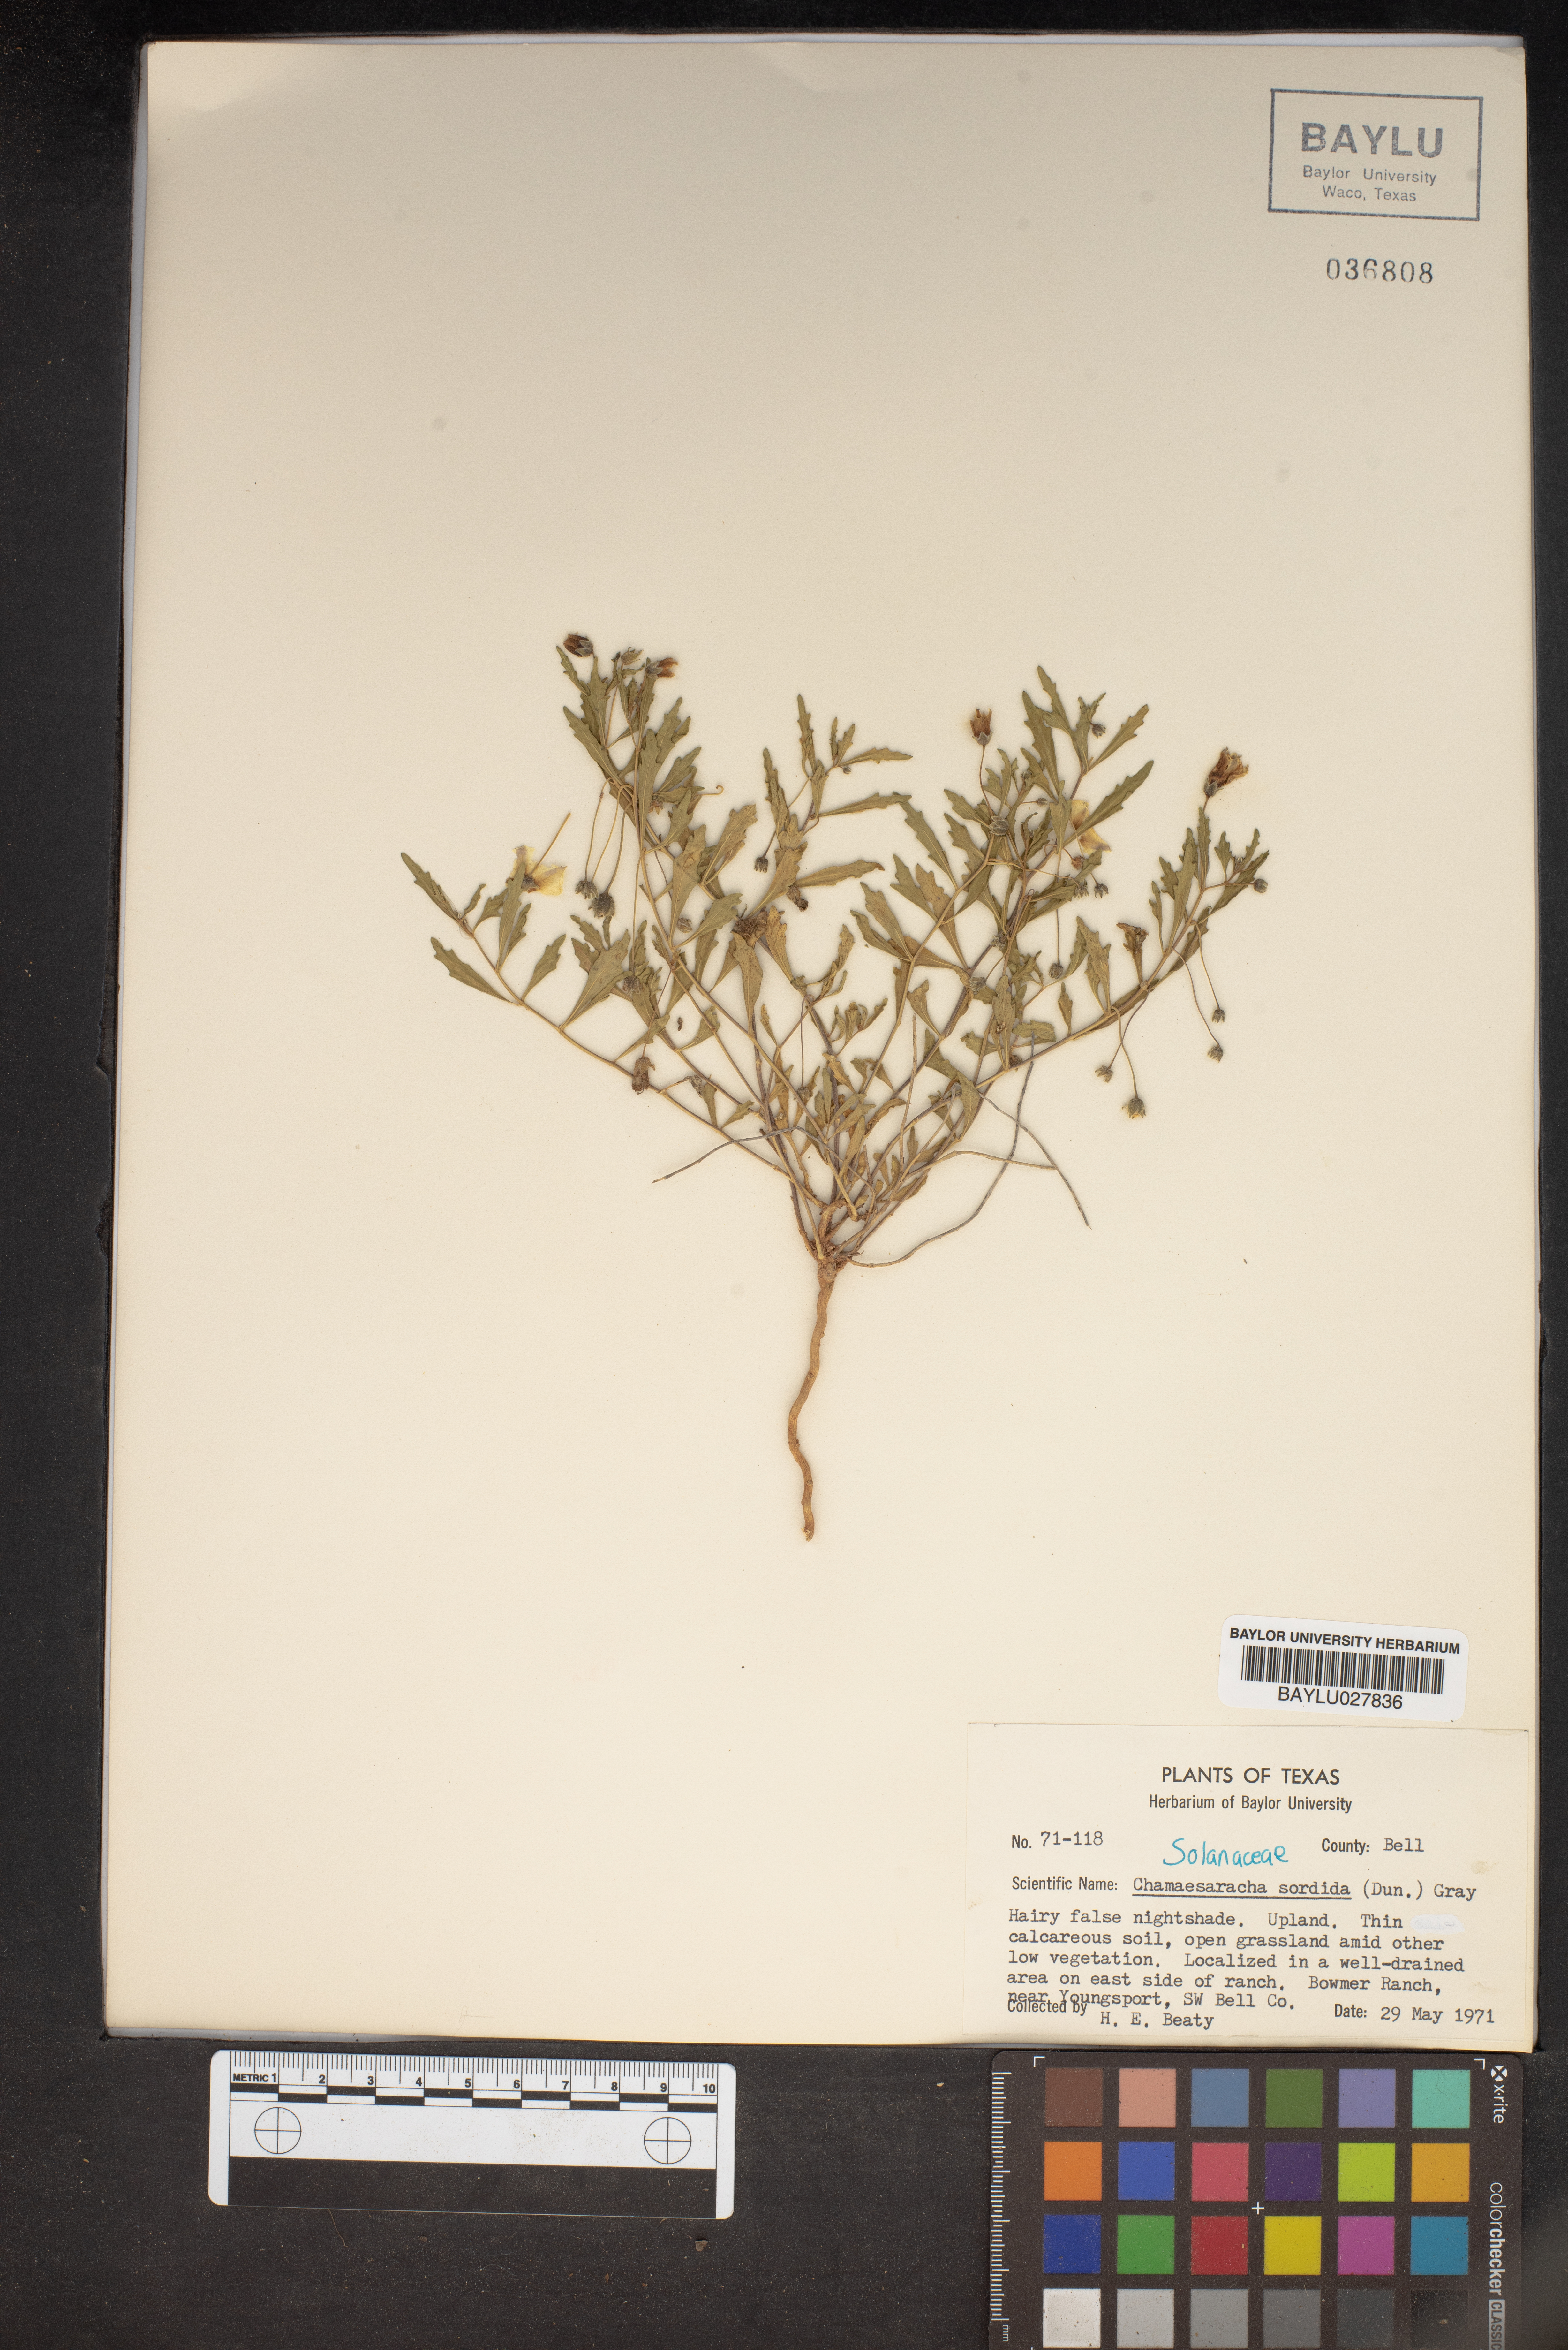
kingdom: Plantae
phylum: Tracheophyta
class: Magnoliopsida
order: Solanales
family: Solanaceae
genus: Chamaesaracha
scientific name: Chamaesaracha sordida
